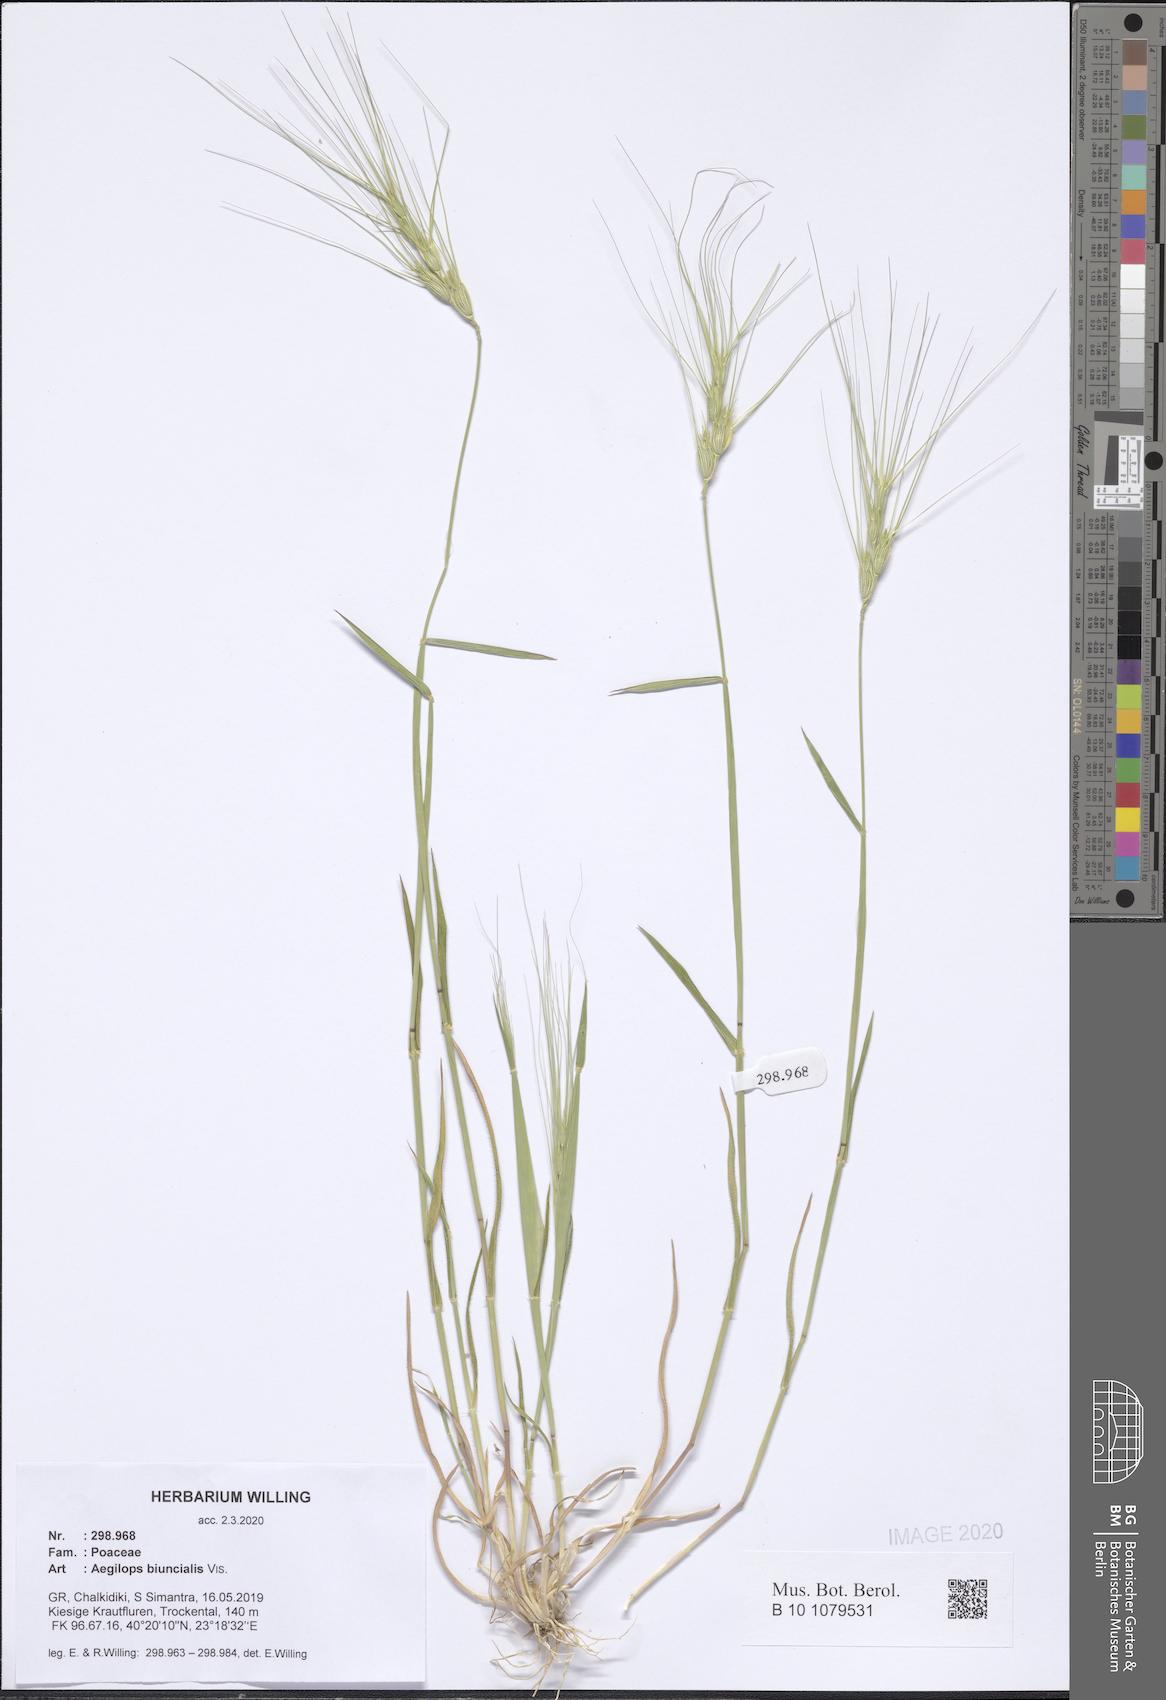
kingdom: Plantae
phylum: Tracheophyta
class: Liliopsida
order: Poales
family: Poaceae
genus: Aegilops
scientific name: Aegilops biuncialis
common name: Mediterranean aegilops
